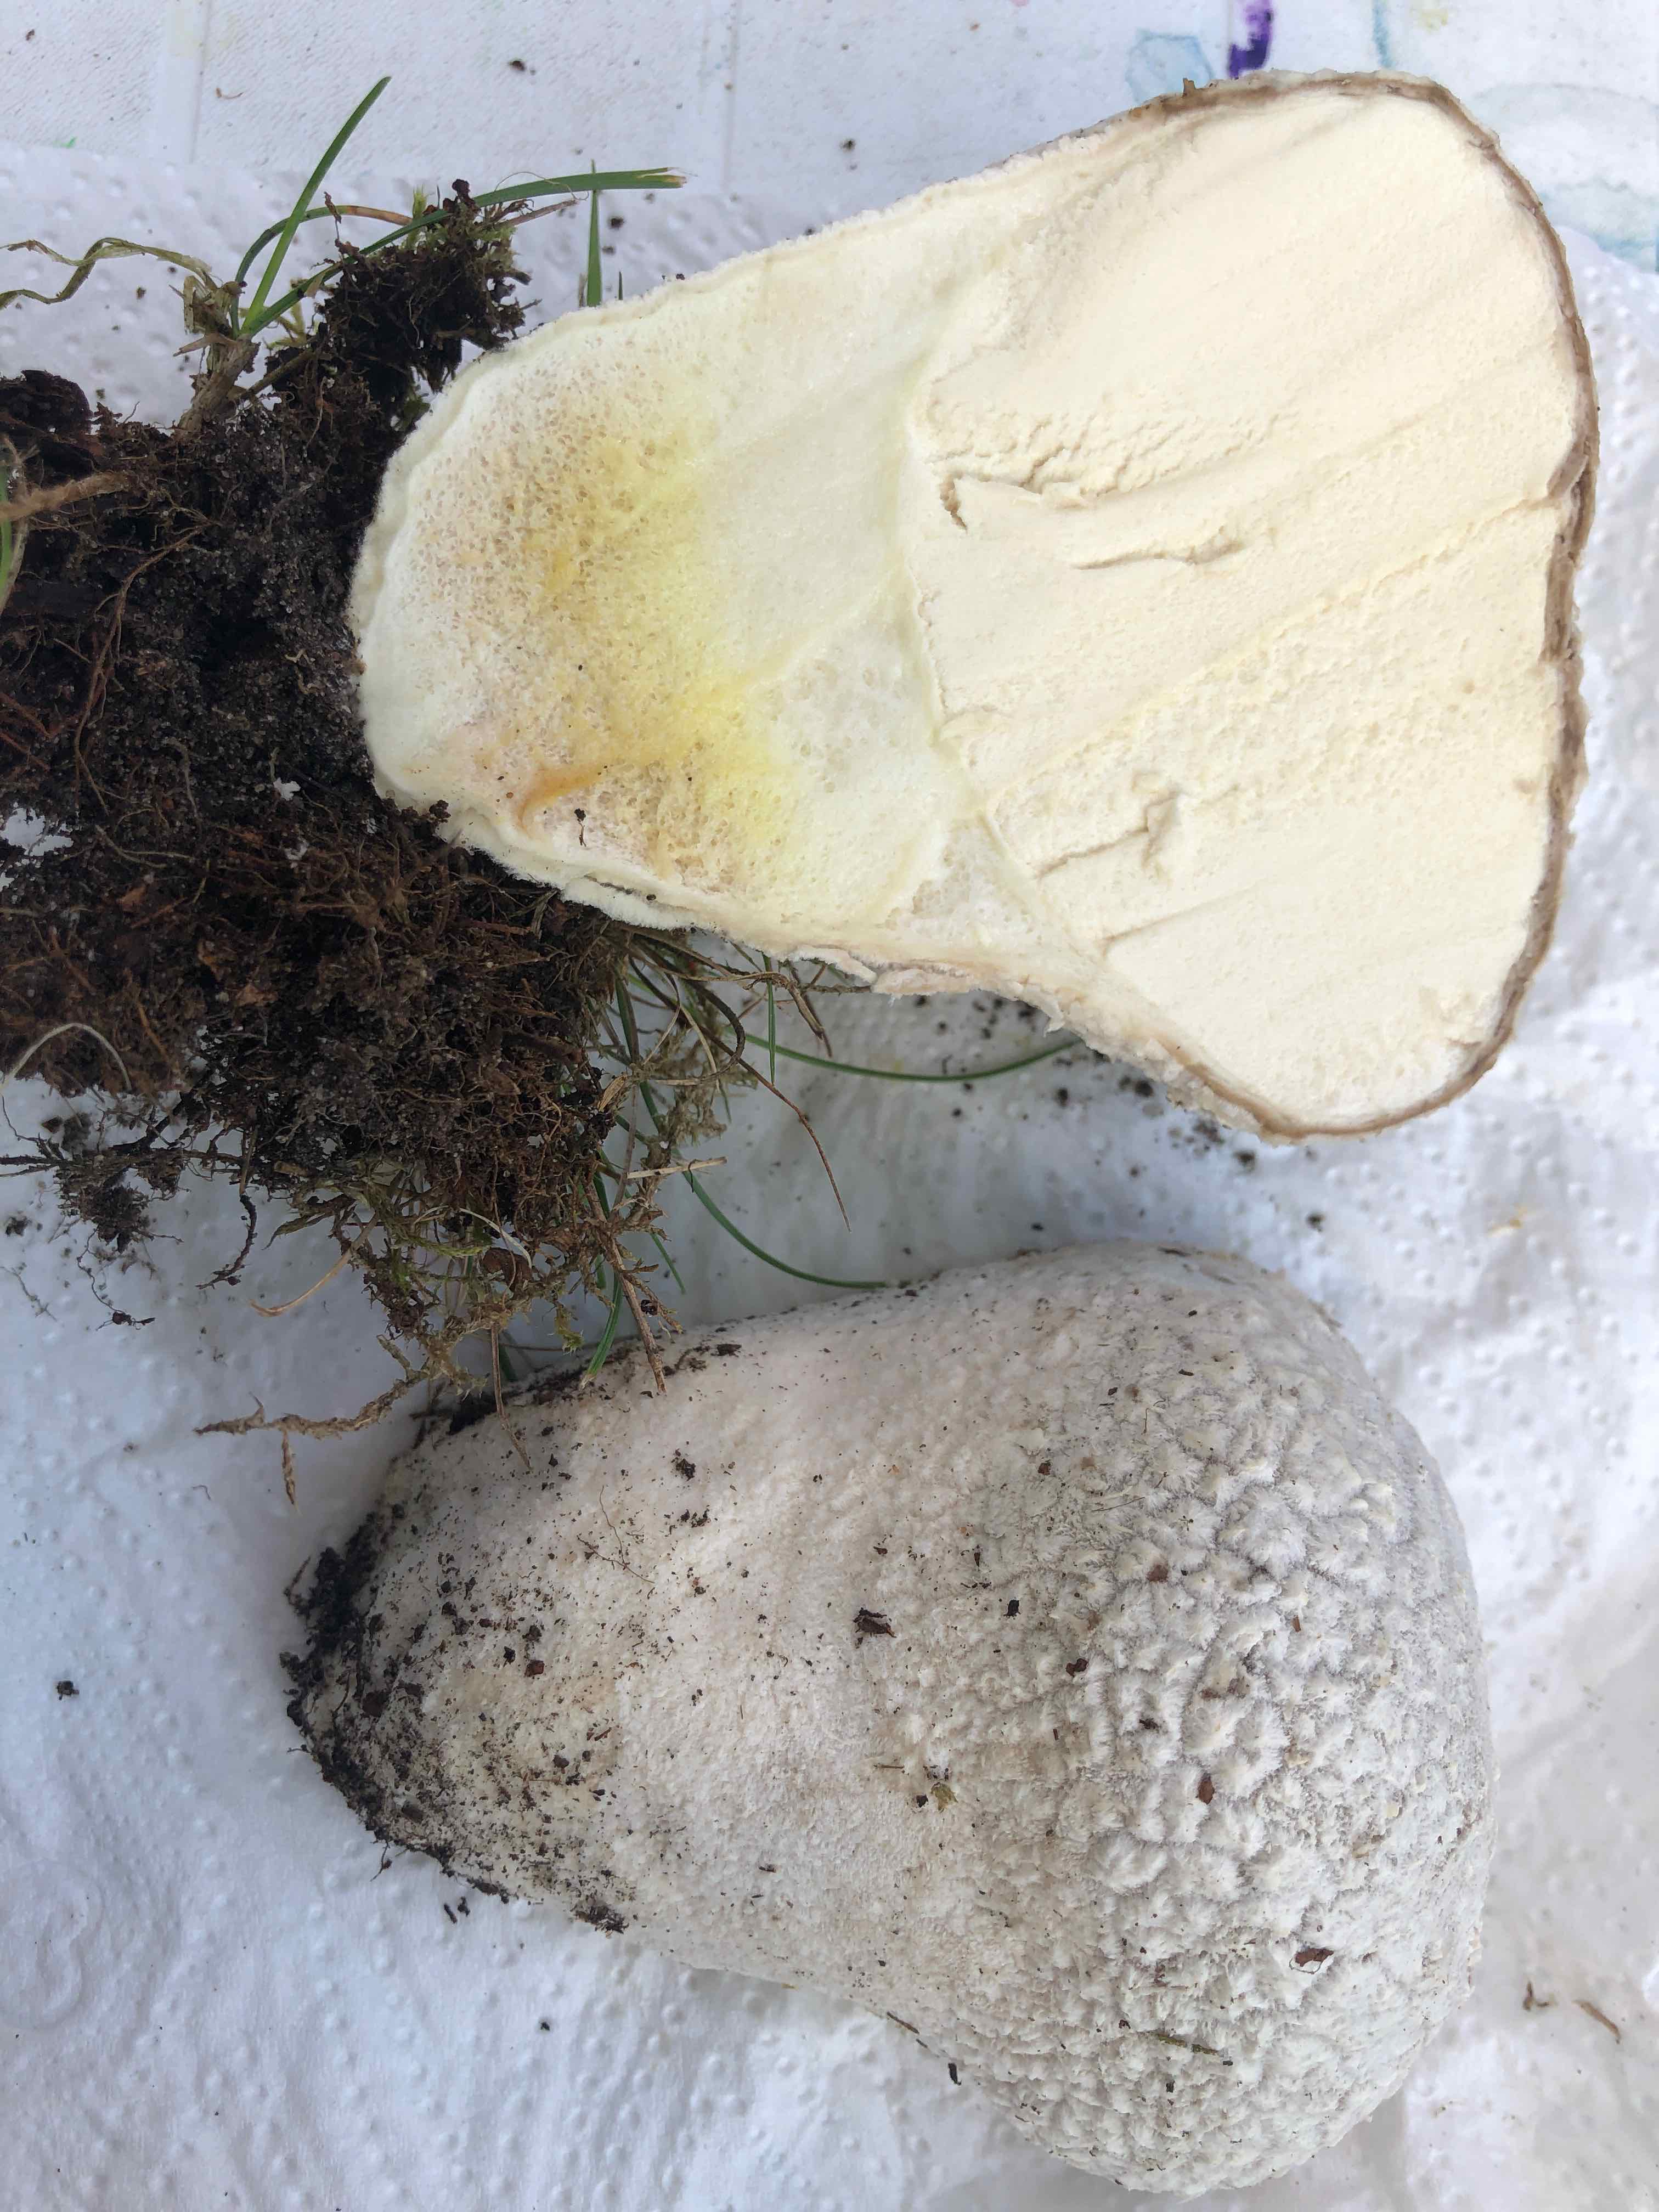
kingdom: Fungi
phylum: Basidiomycota
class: Agaricomycetes
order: Agaricales
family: Lycoperdaceae
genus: Bovistella
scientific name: Bovistella utriformis
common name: skællet støvbold
